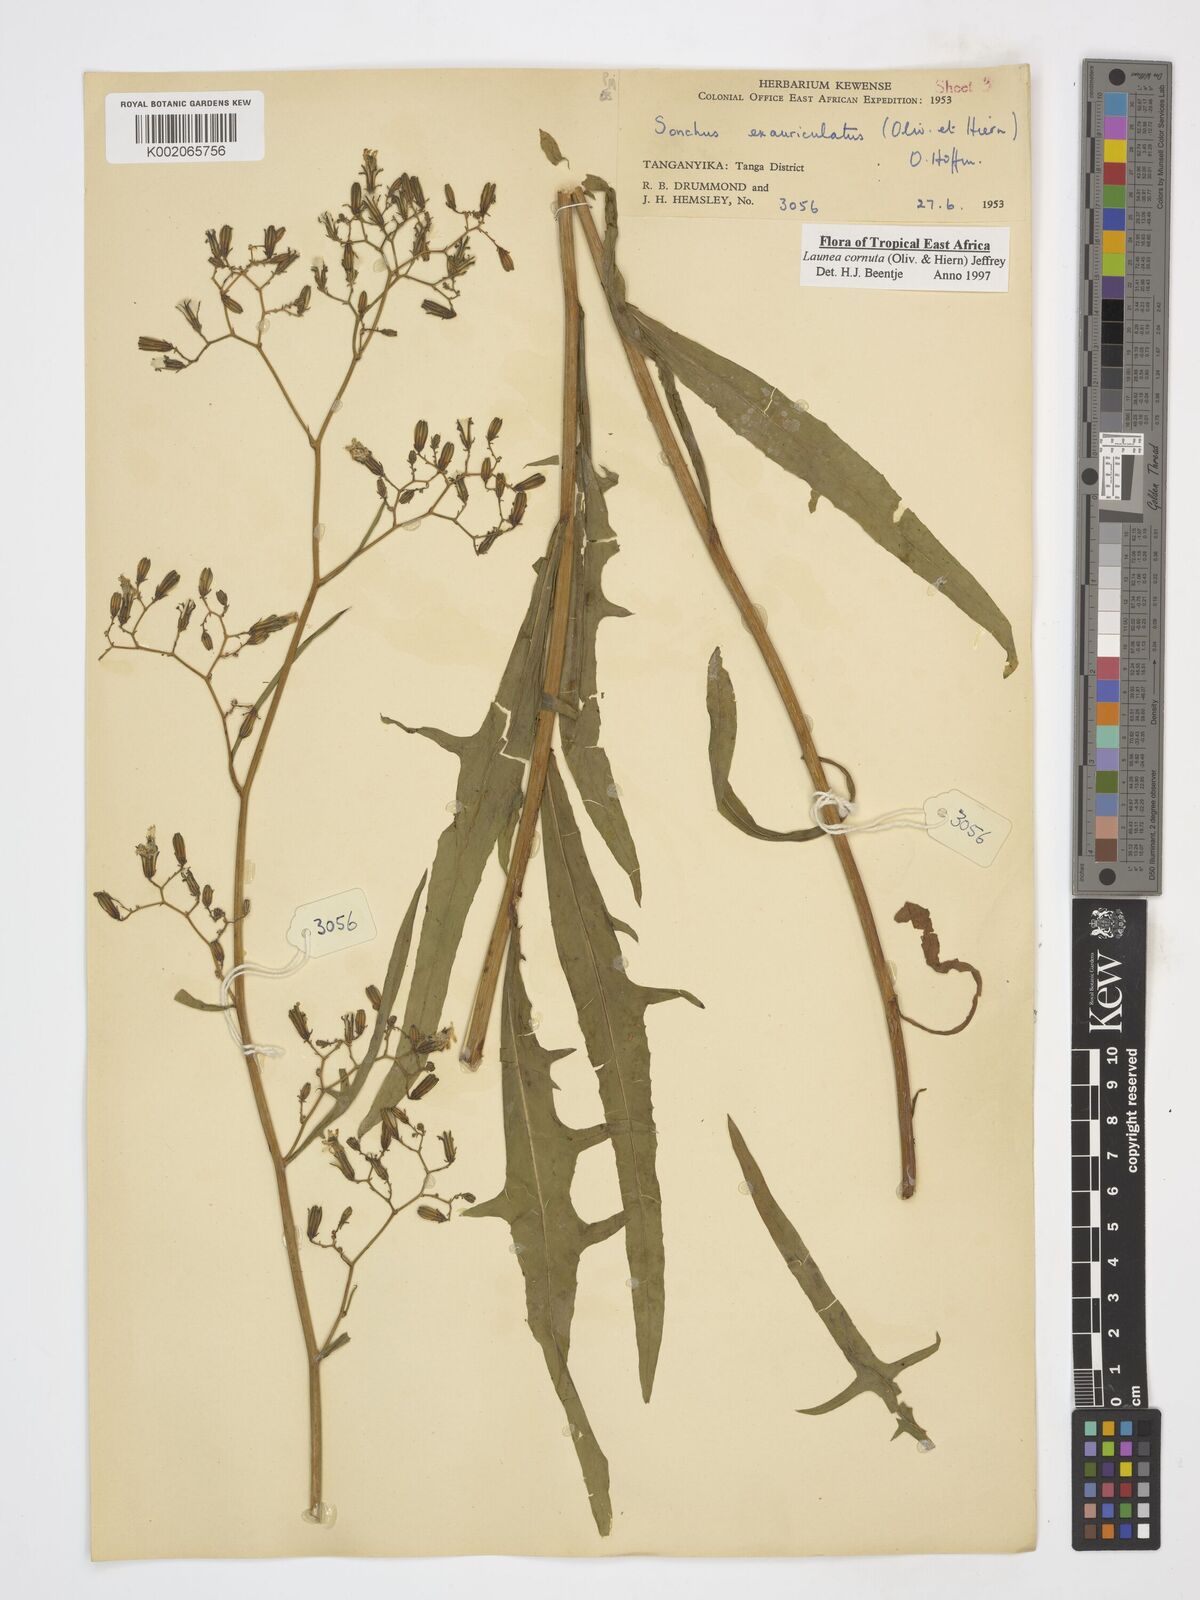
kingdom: Plantae
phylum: Tracheophyta
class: Magnoliopsida
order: Asterales
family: Asteraceae
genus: Launaea
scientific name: Launaea cornuta
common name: Bitter-lettuce
